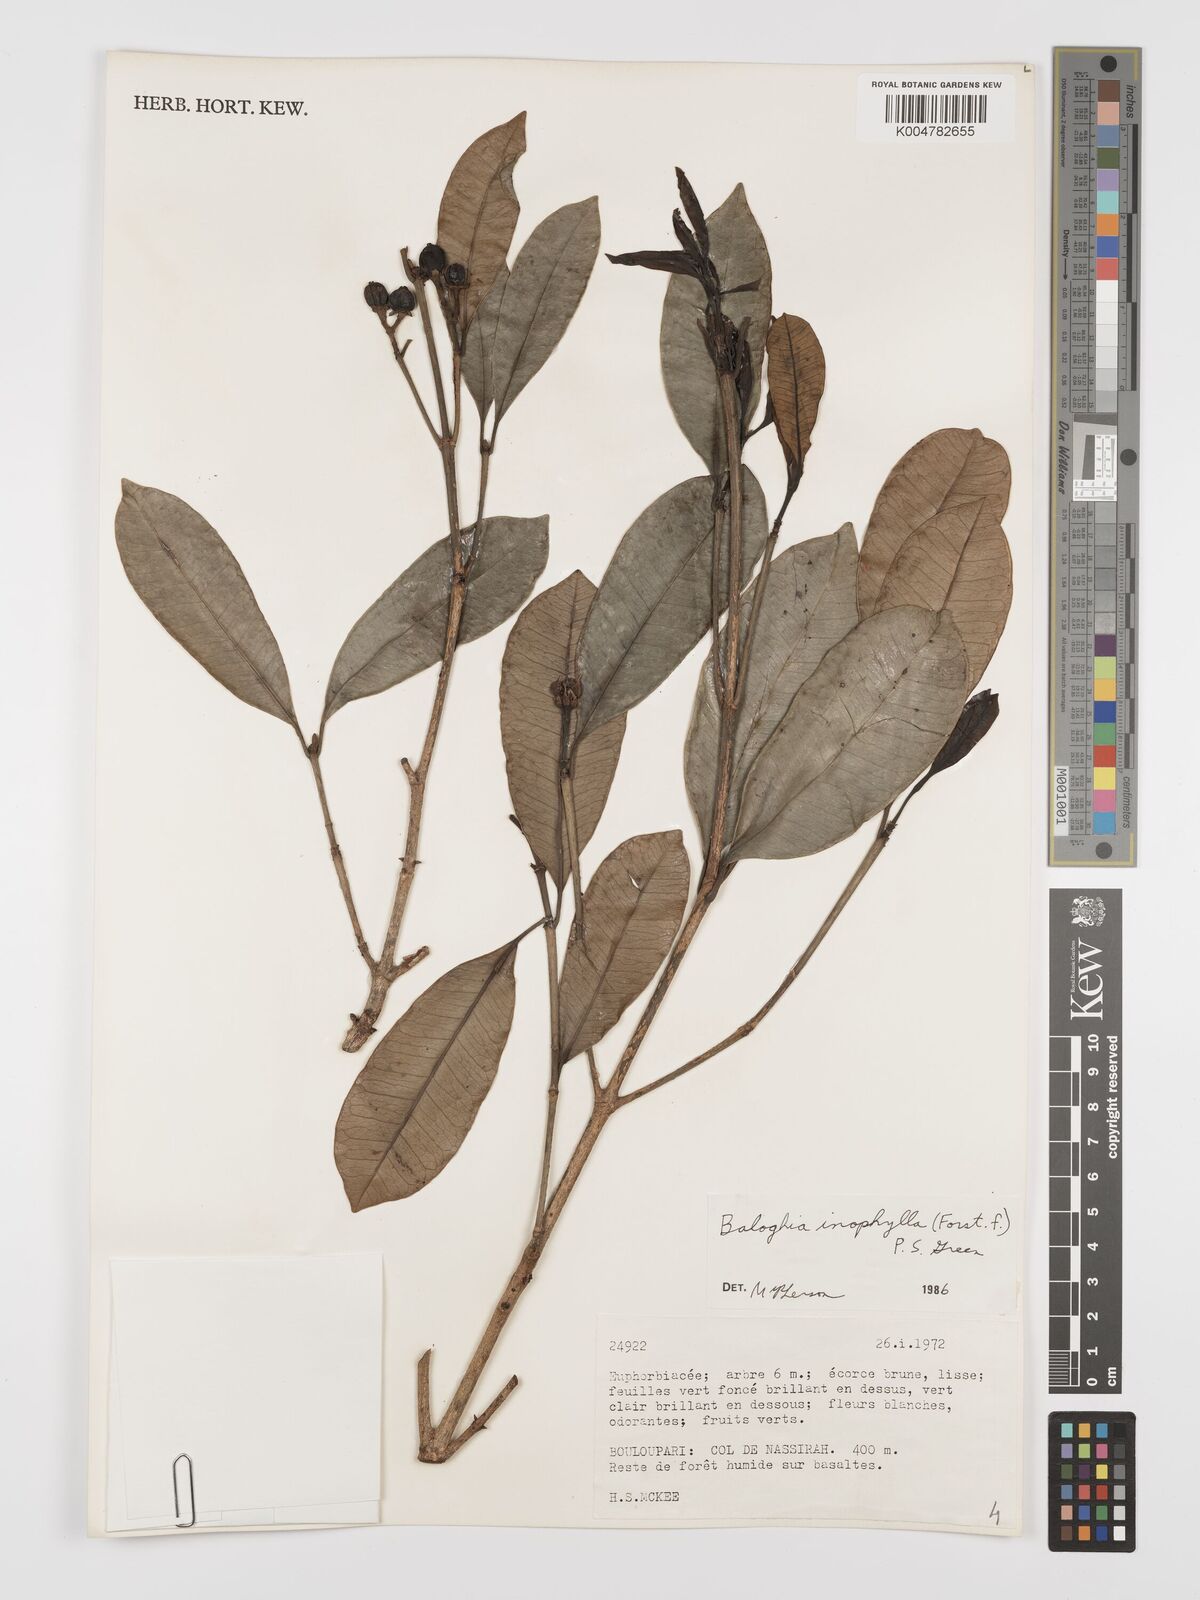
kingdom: Plantae
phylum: Tracheophyta
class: Magnoliopsida
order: Malpighiales
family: Euphorbiaceae
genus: Baloghia
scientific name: Baloghia inophylla
